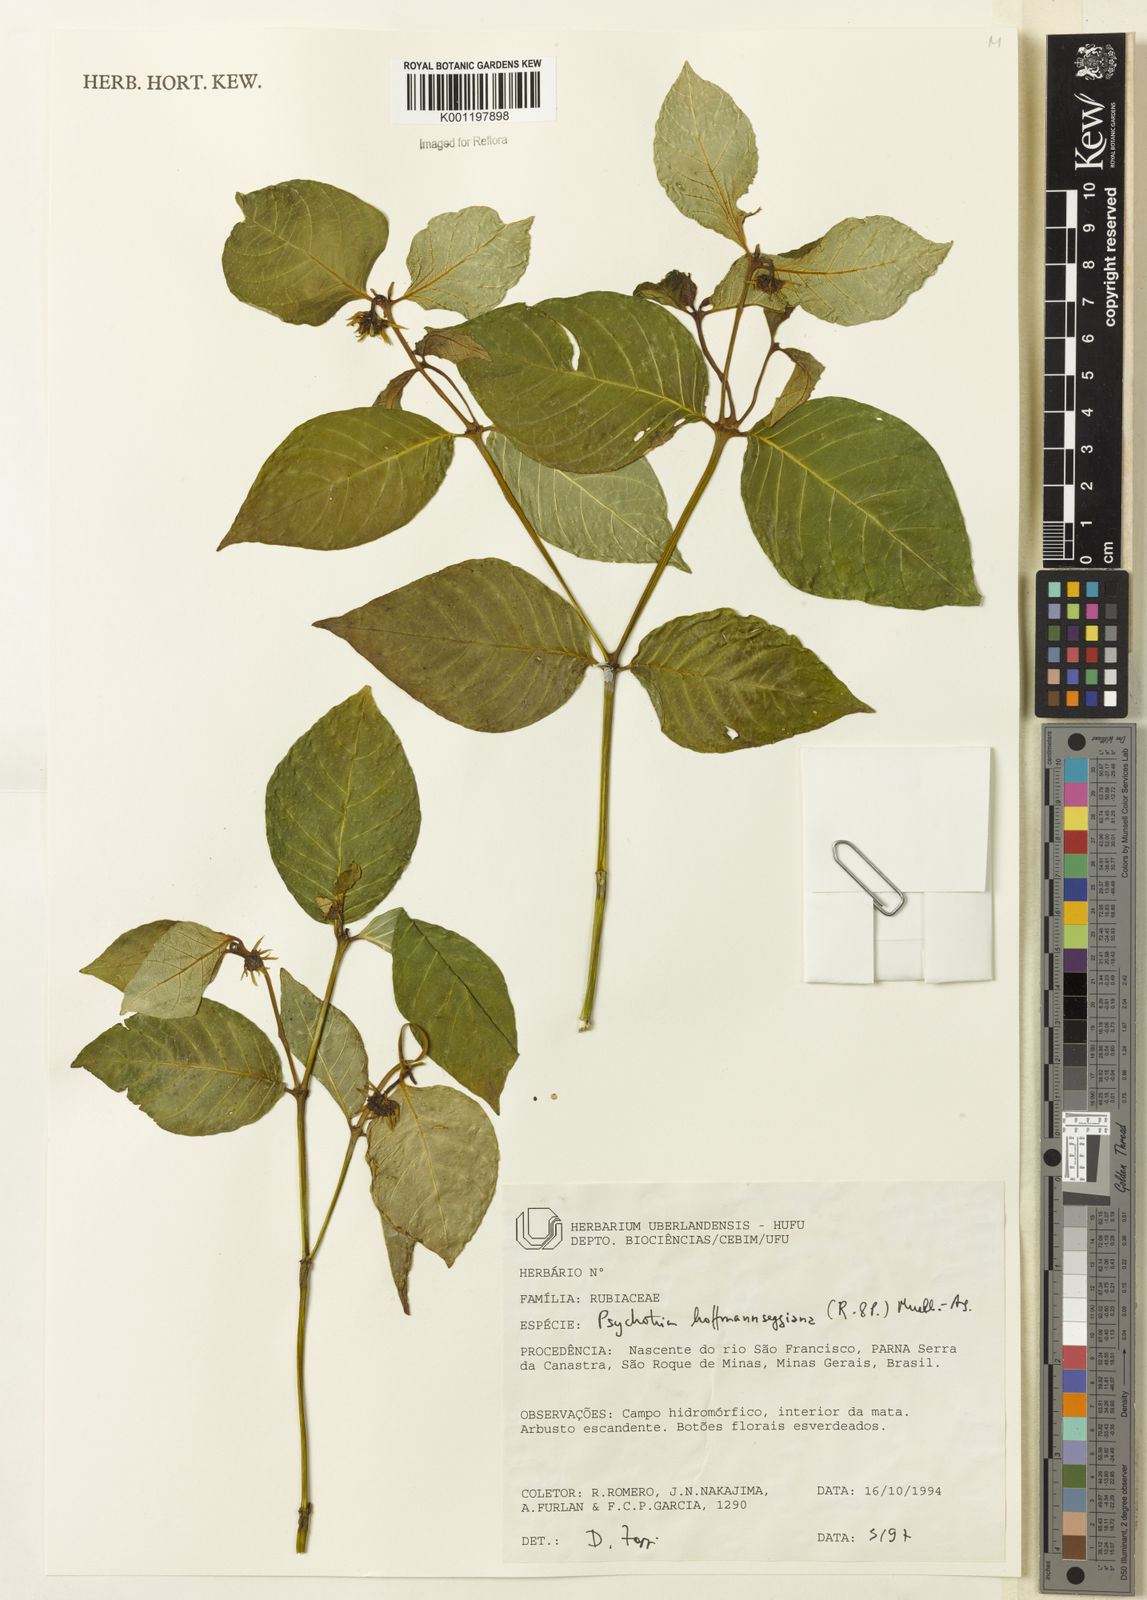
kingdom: Plantae
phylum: Tracheophyta
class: Magnoliopsida
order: Gentianales
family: Rubiaceae
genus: Psychotria
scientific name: Psychotria
